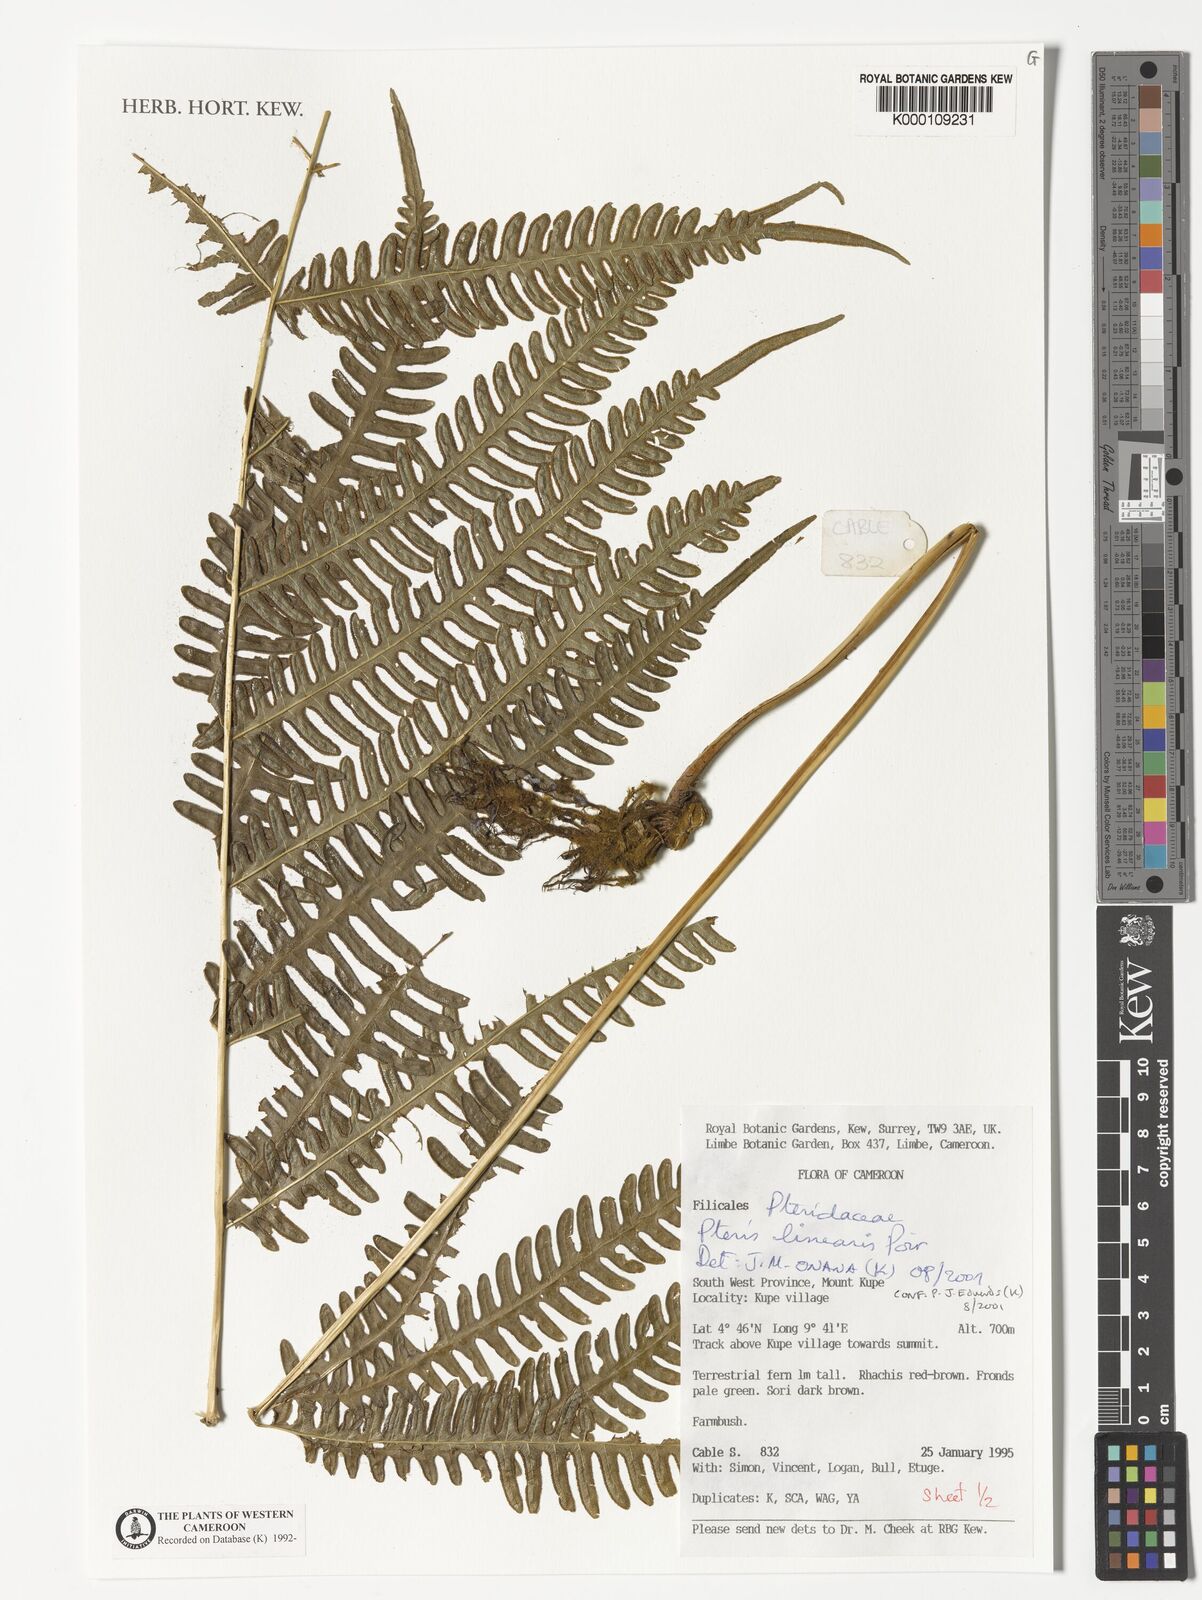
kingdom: Plantae
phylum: Tracheophyta
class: Polypodiopsida
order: Polypodiales
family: Pteridaceae
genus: Pteris
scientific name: Pteris linearis
